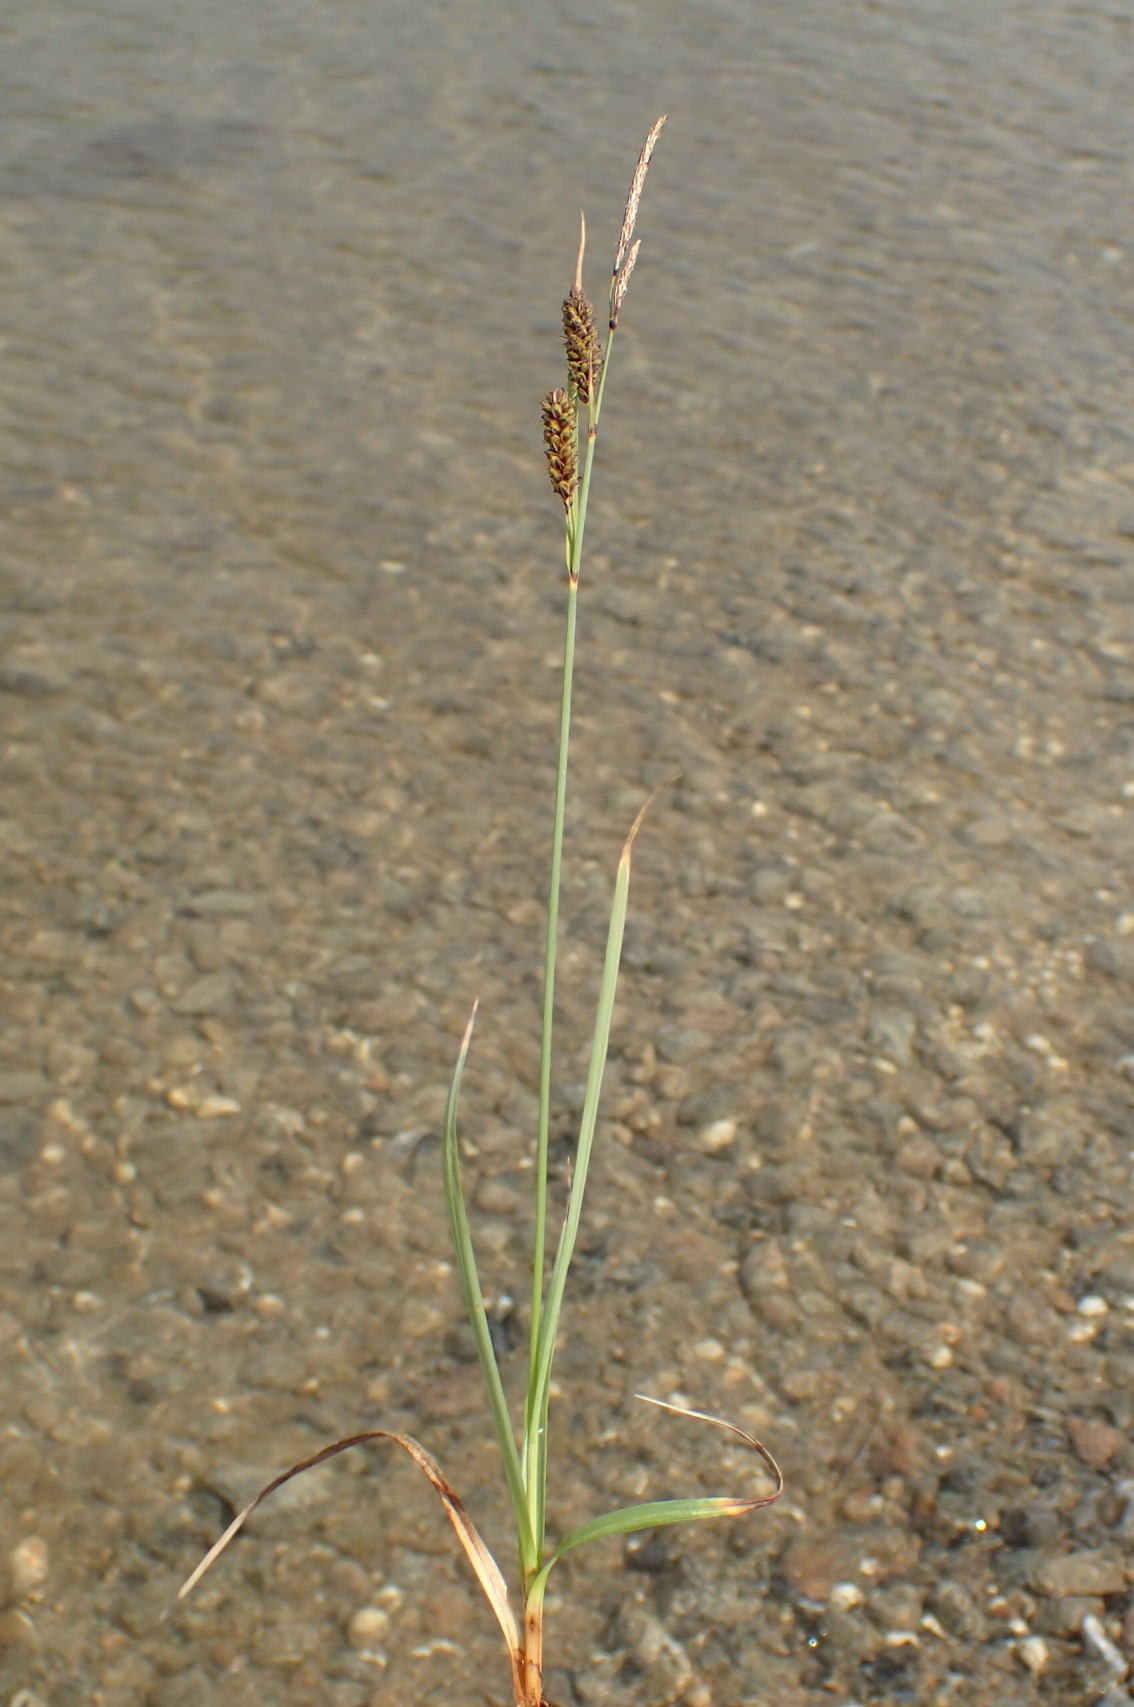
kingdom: Plantae
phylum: Tracheophyta
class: Liliopsida
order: Poales
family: Cyperaceae
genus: Carex
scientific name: Carex flacca
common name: Blågrøn star
